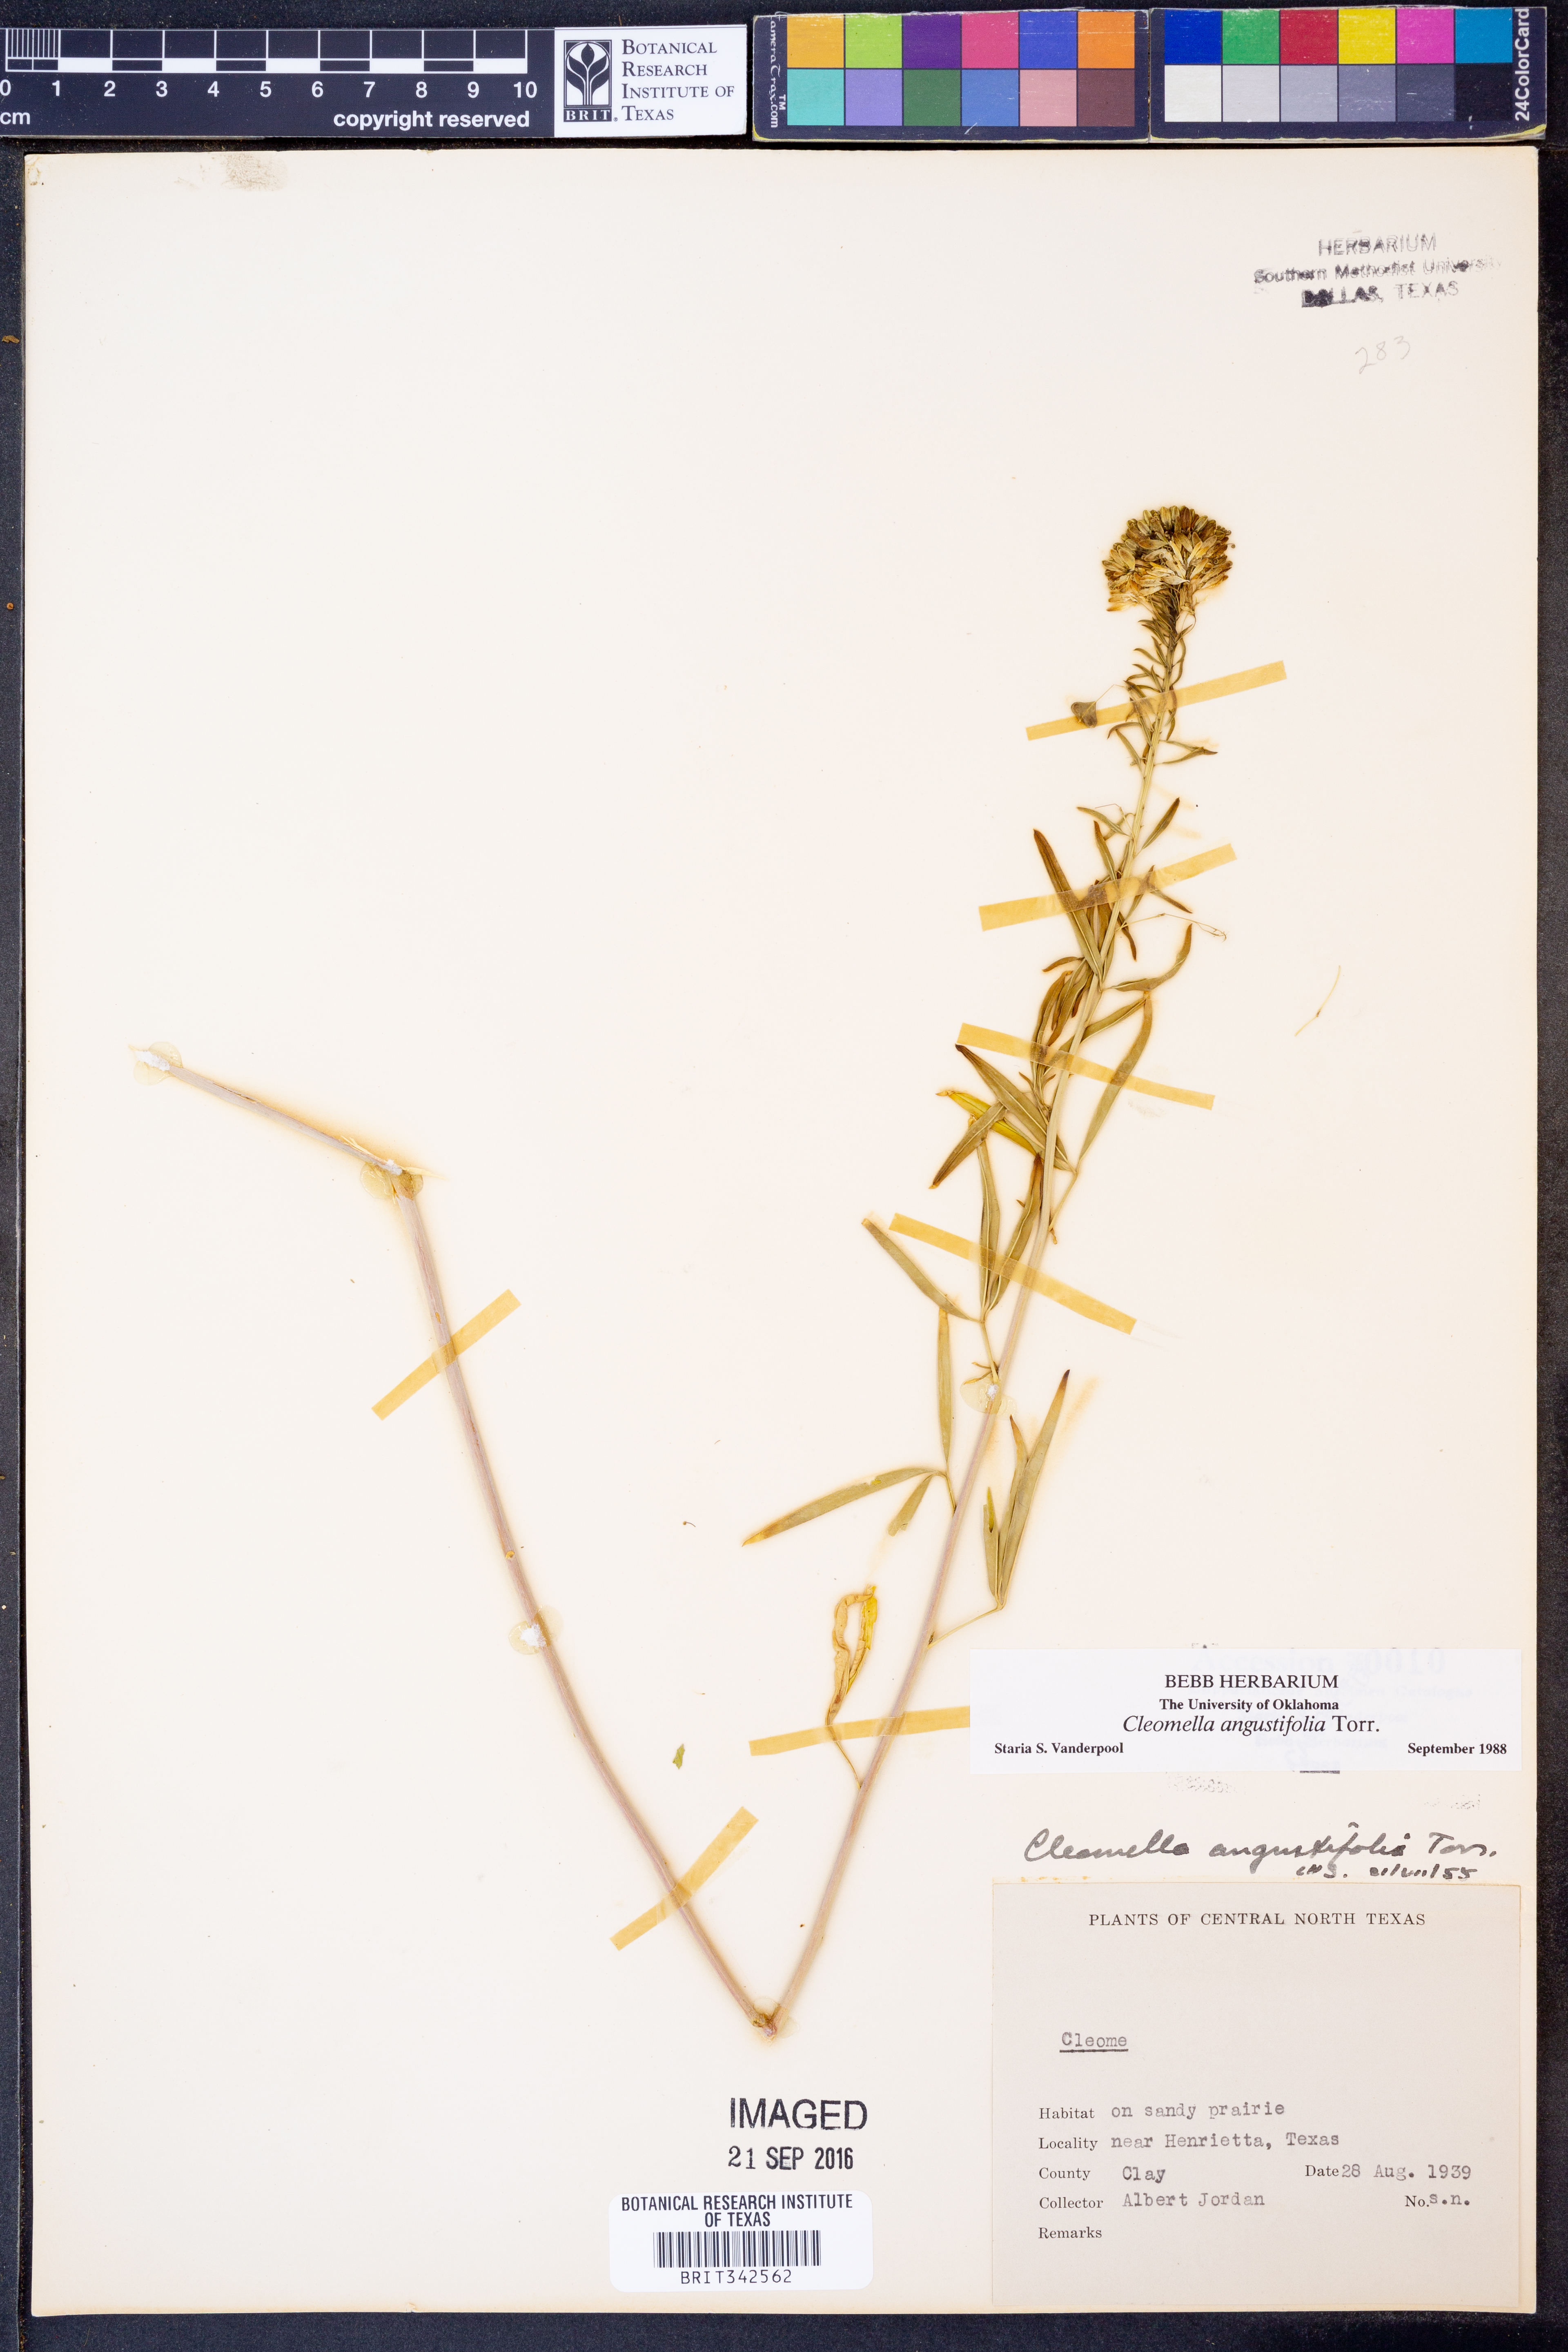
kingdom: Plantae
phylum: Tracheophyta
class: Magnoliopsida
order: Brassicales
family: Cleomaceae
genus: Cleomella
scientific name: Cleomella angustifolia
